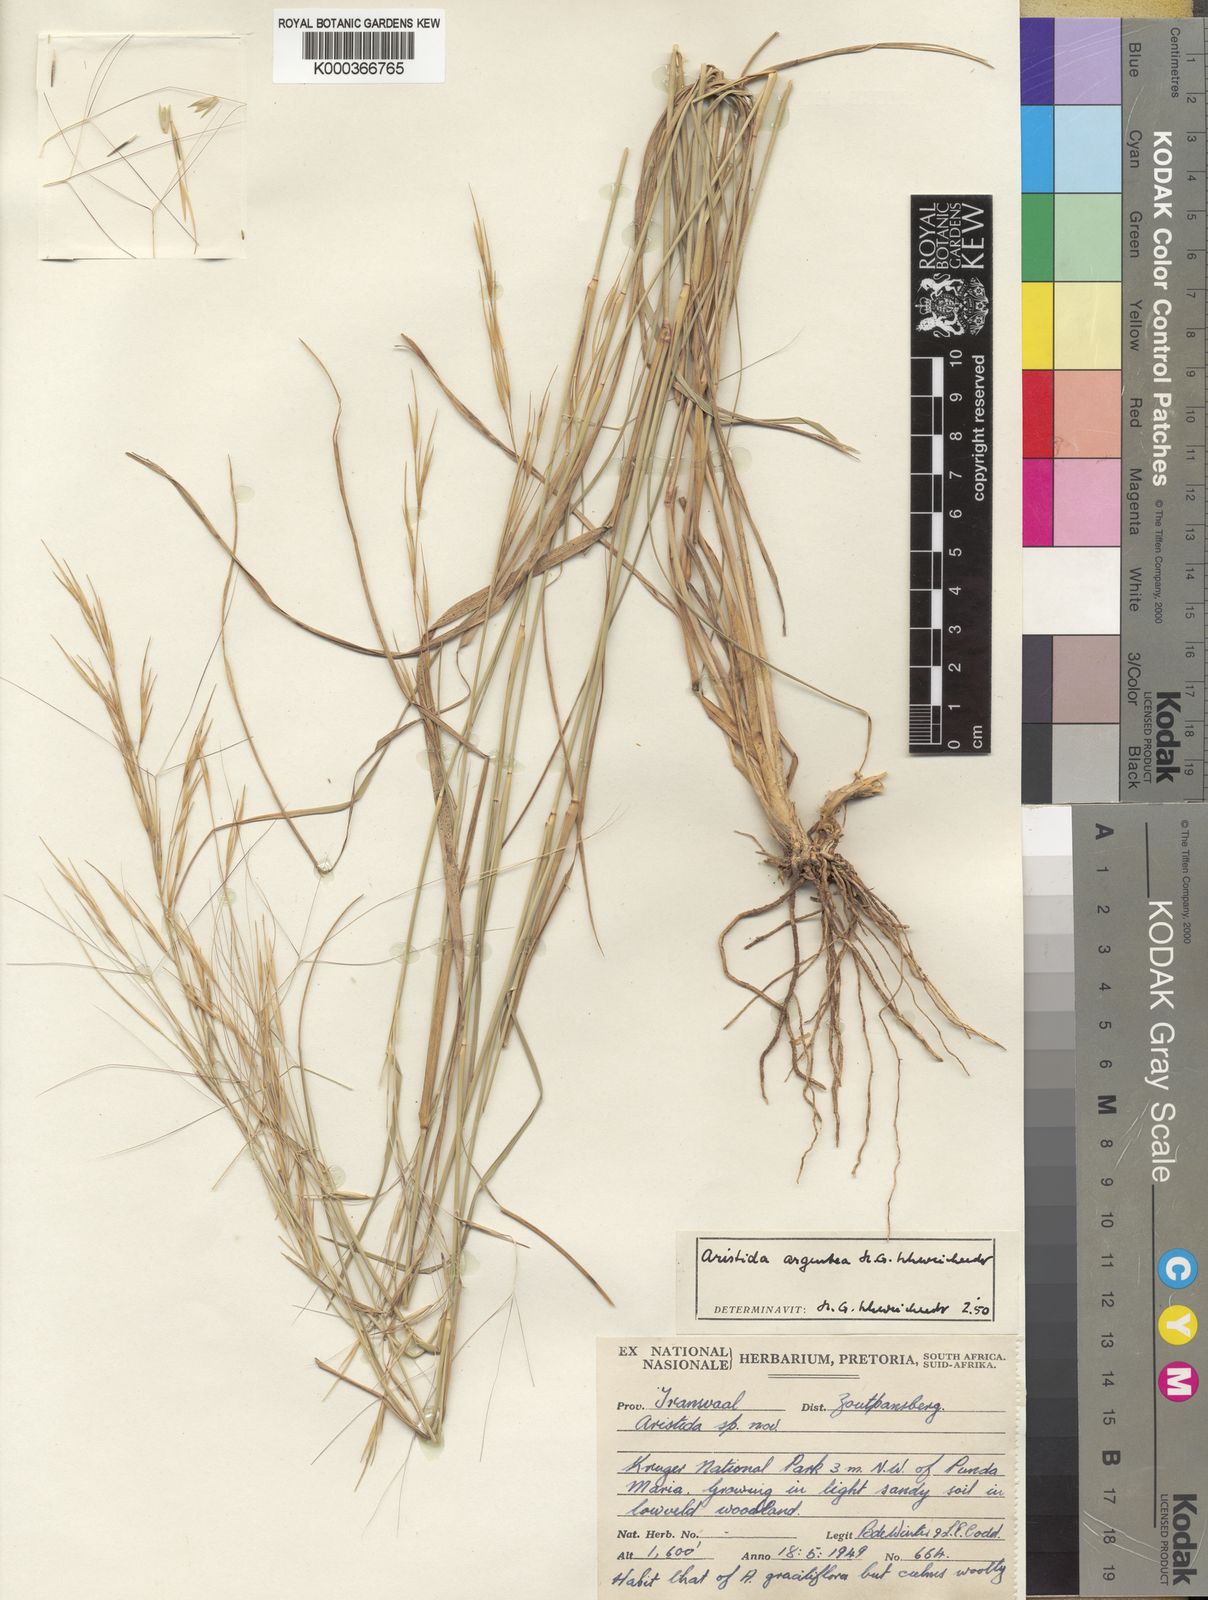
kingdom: Plantae
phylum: Tracheophyta
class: Liliopsida
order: Poales
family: Poaceae
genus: Aristida
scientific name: Aristida mollissima
